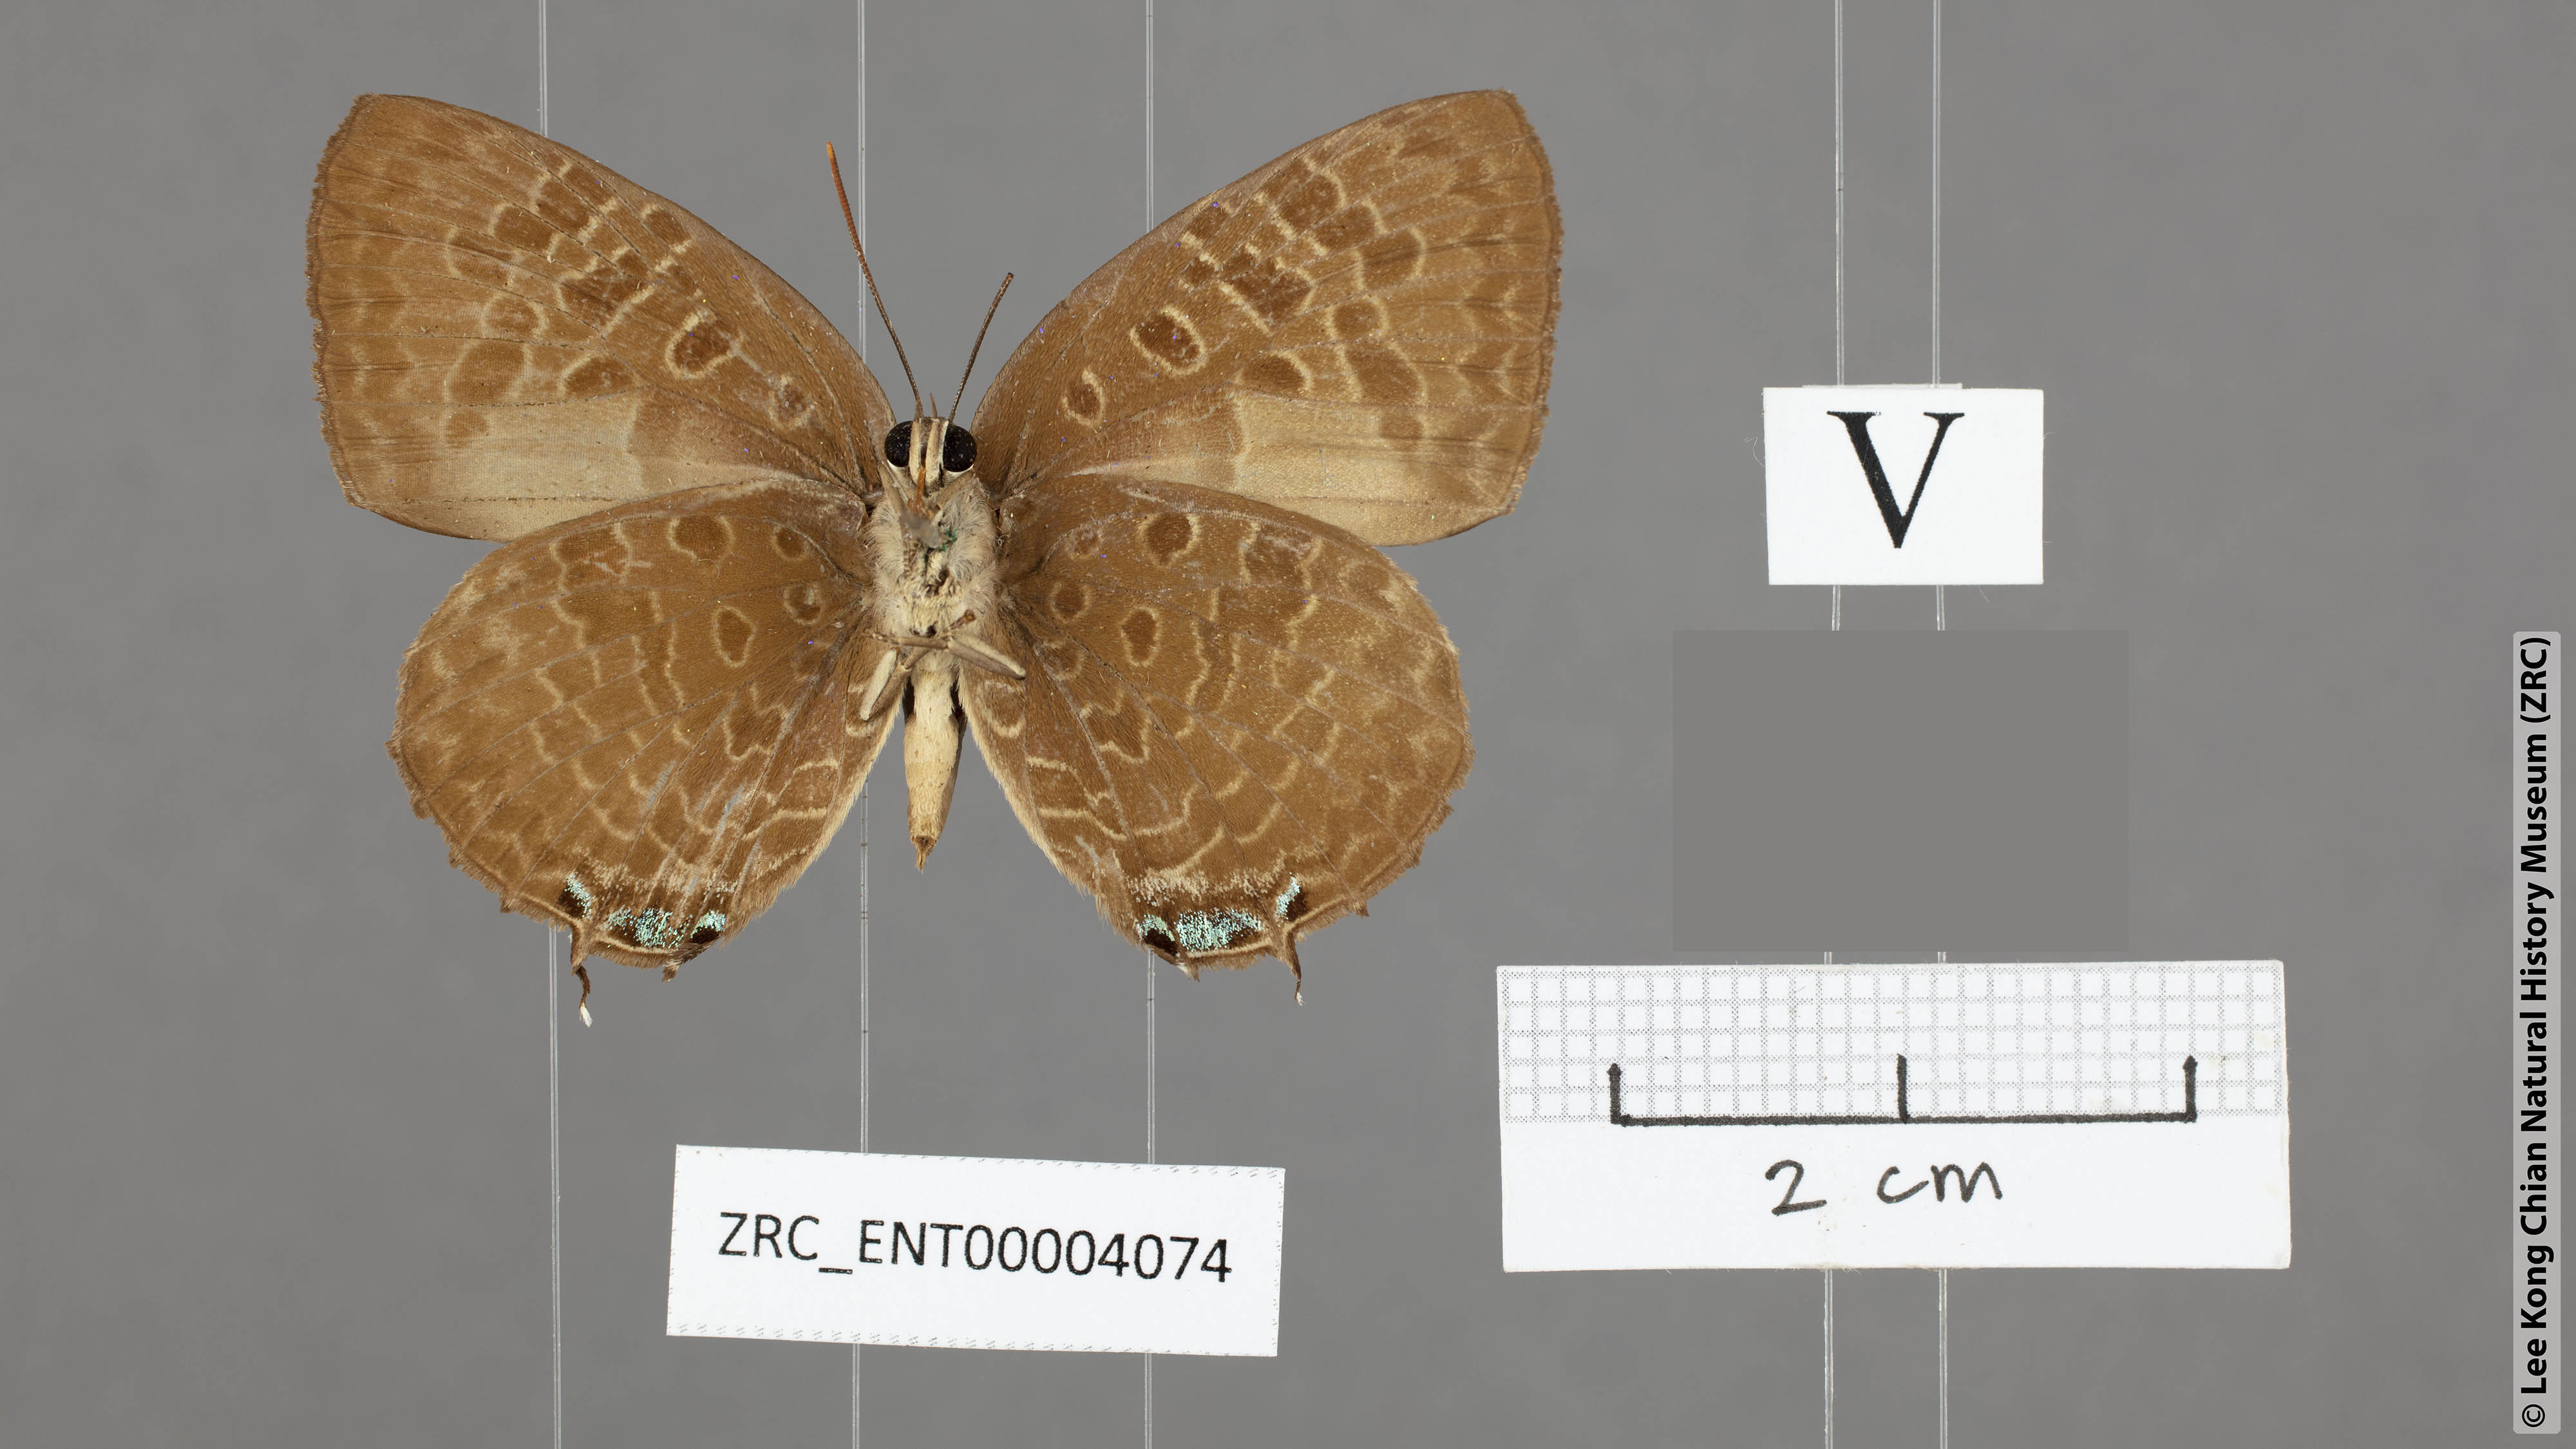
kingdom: Animalia
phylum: Arthropoda
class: Insecta
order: Lepidoptera
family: Lycaenidae
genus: Arhopala
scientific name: Arhopala hellenore
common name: Doherty's green oakblue
